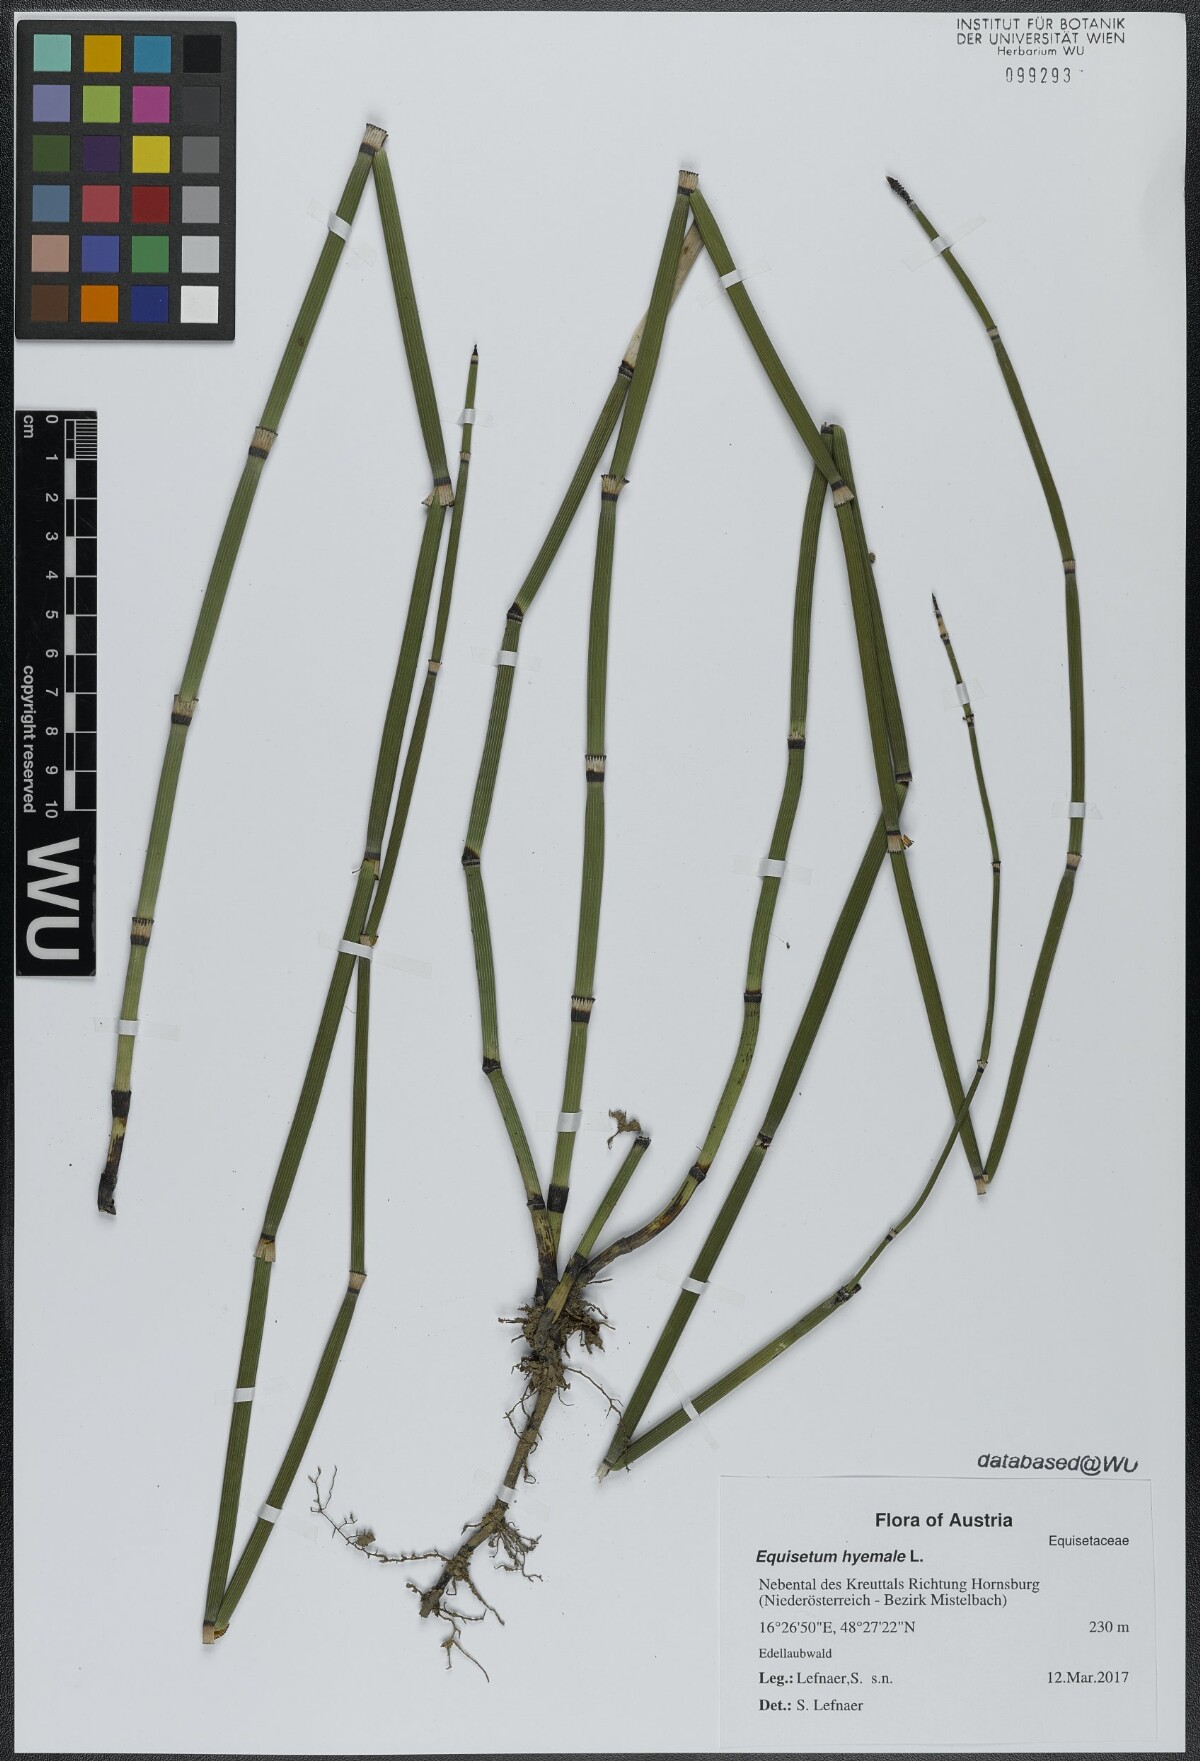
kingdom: Plantae
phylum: Tracheophyta
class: Polypodiopsida
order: Equisetales
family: Equisetaceae
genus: Equisetum
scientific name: Equisetum hyemale
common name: Rough horsetail
